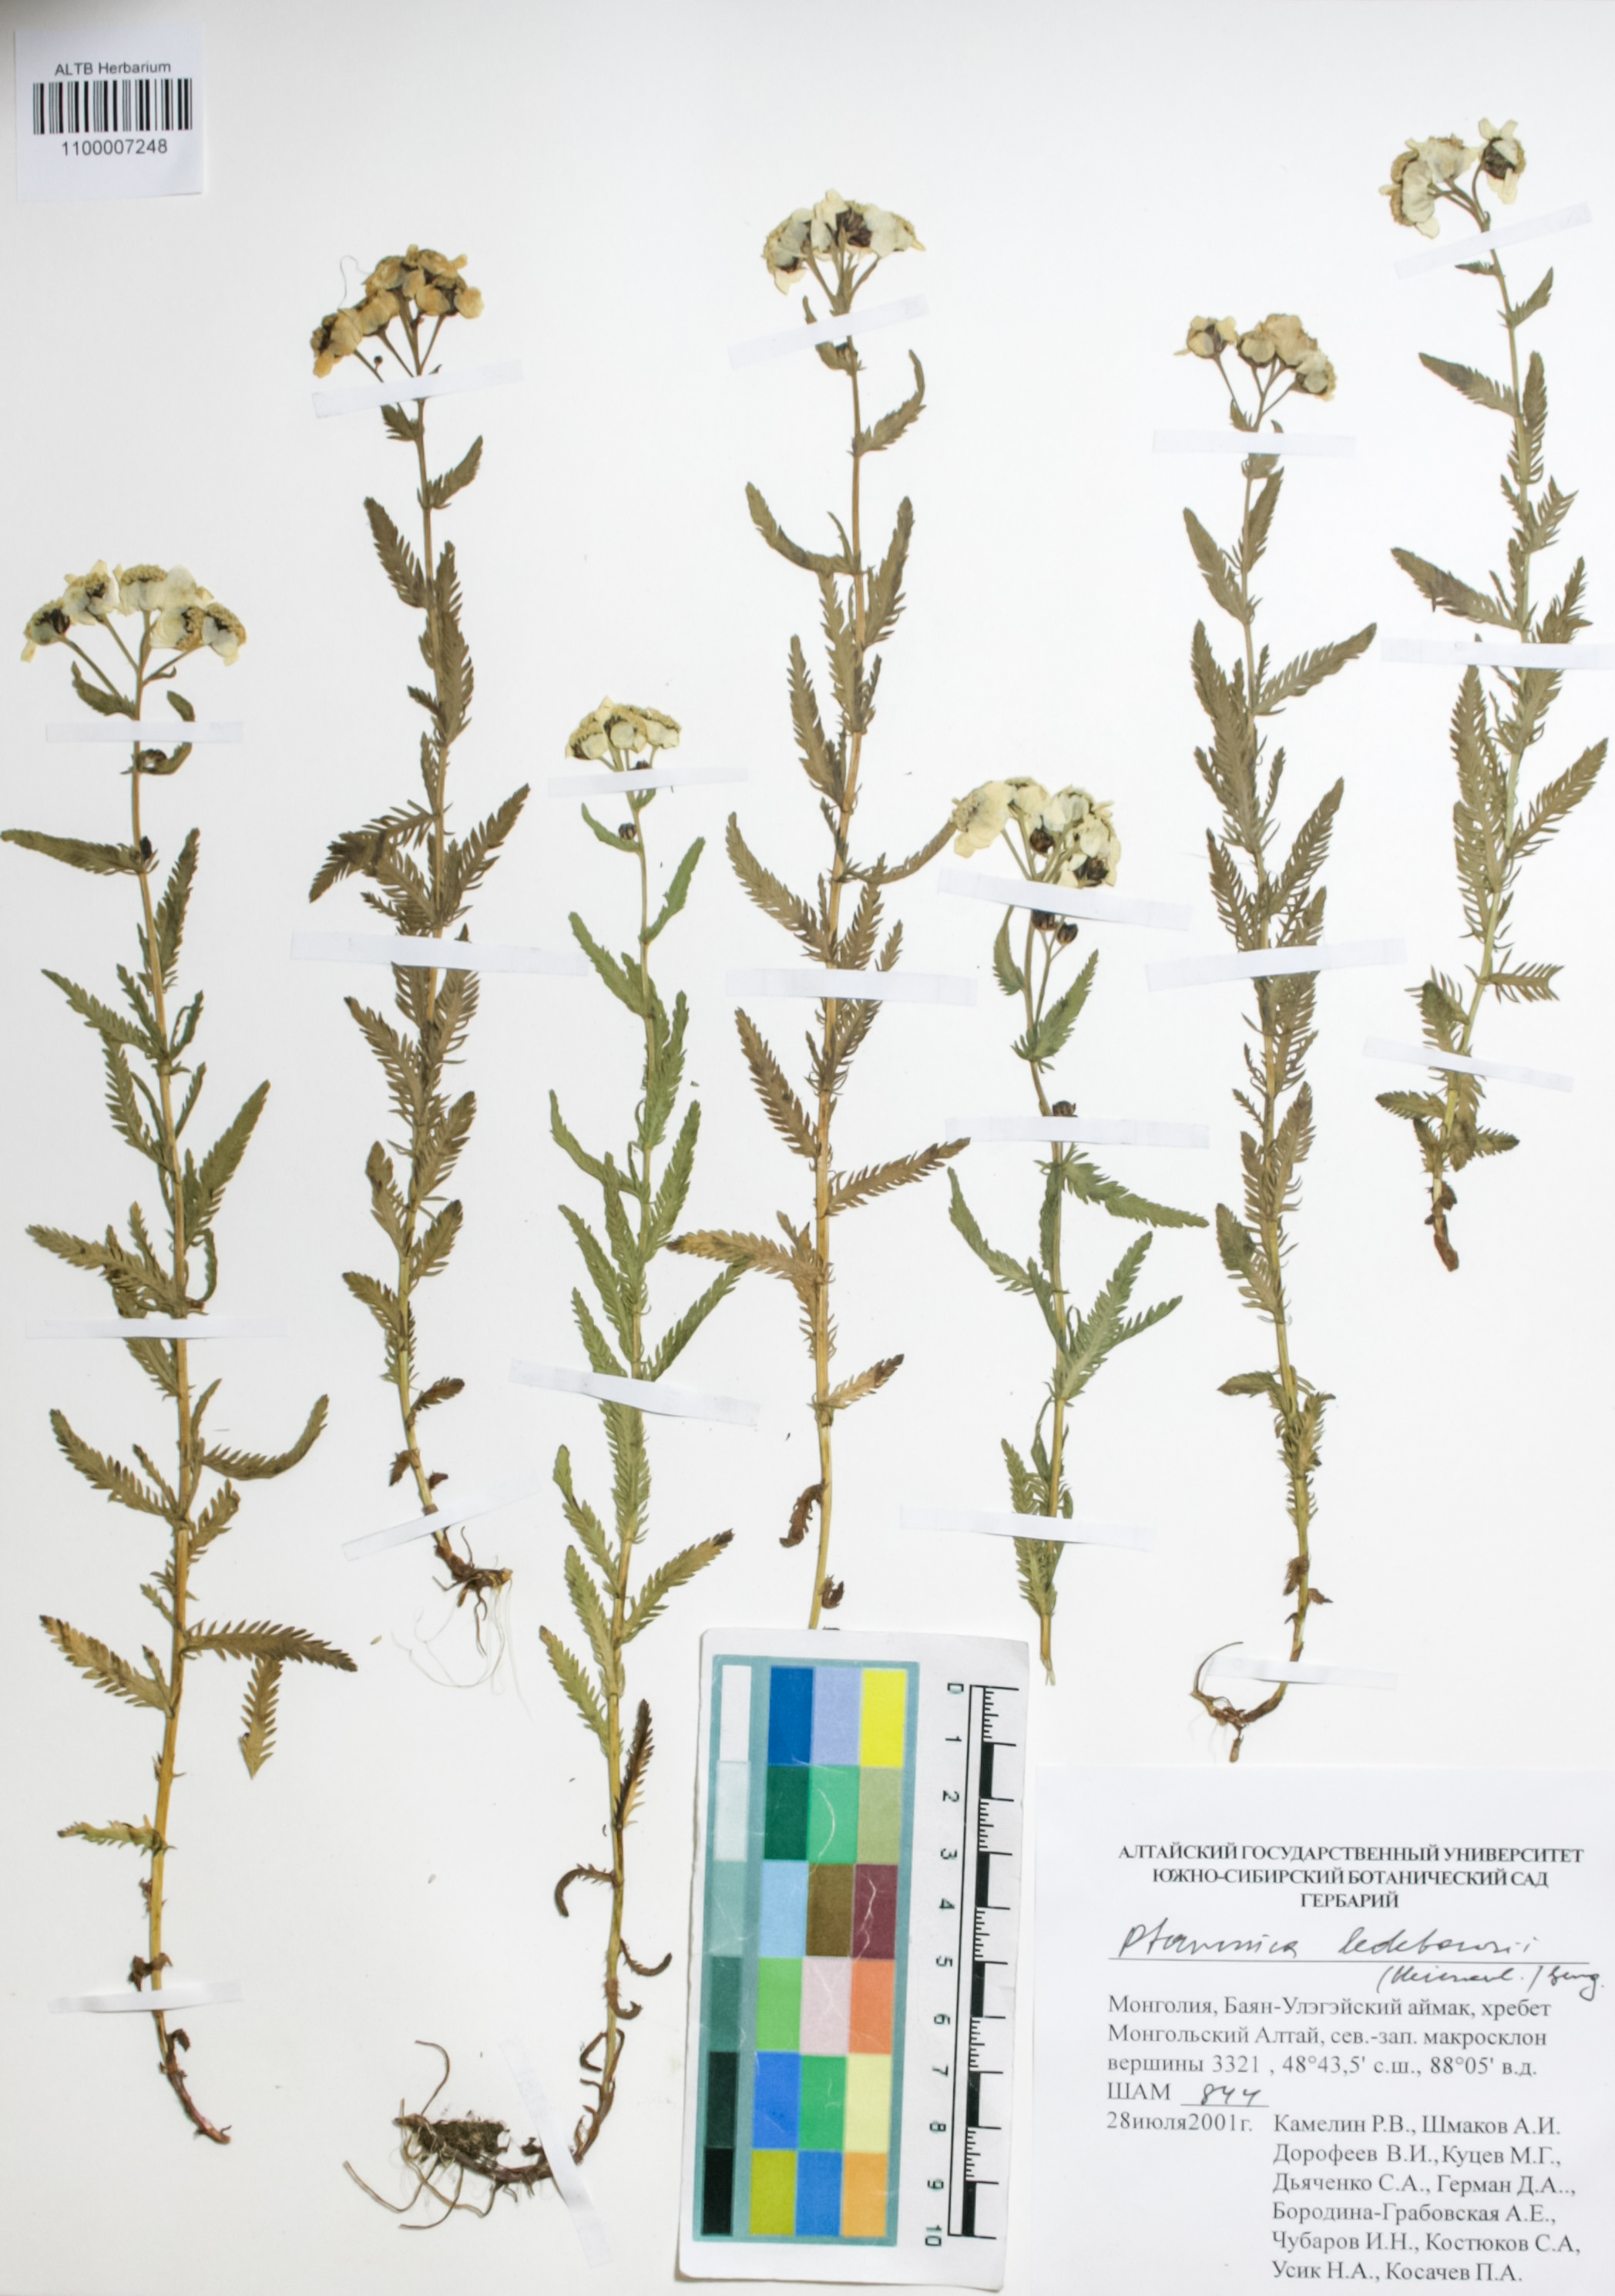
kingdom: Plantae
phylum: Tracheophyta
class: Magnoliopsida
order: Asterales
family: Asteraceae
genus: Achillea
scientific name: Achillea ledebourii
